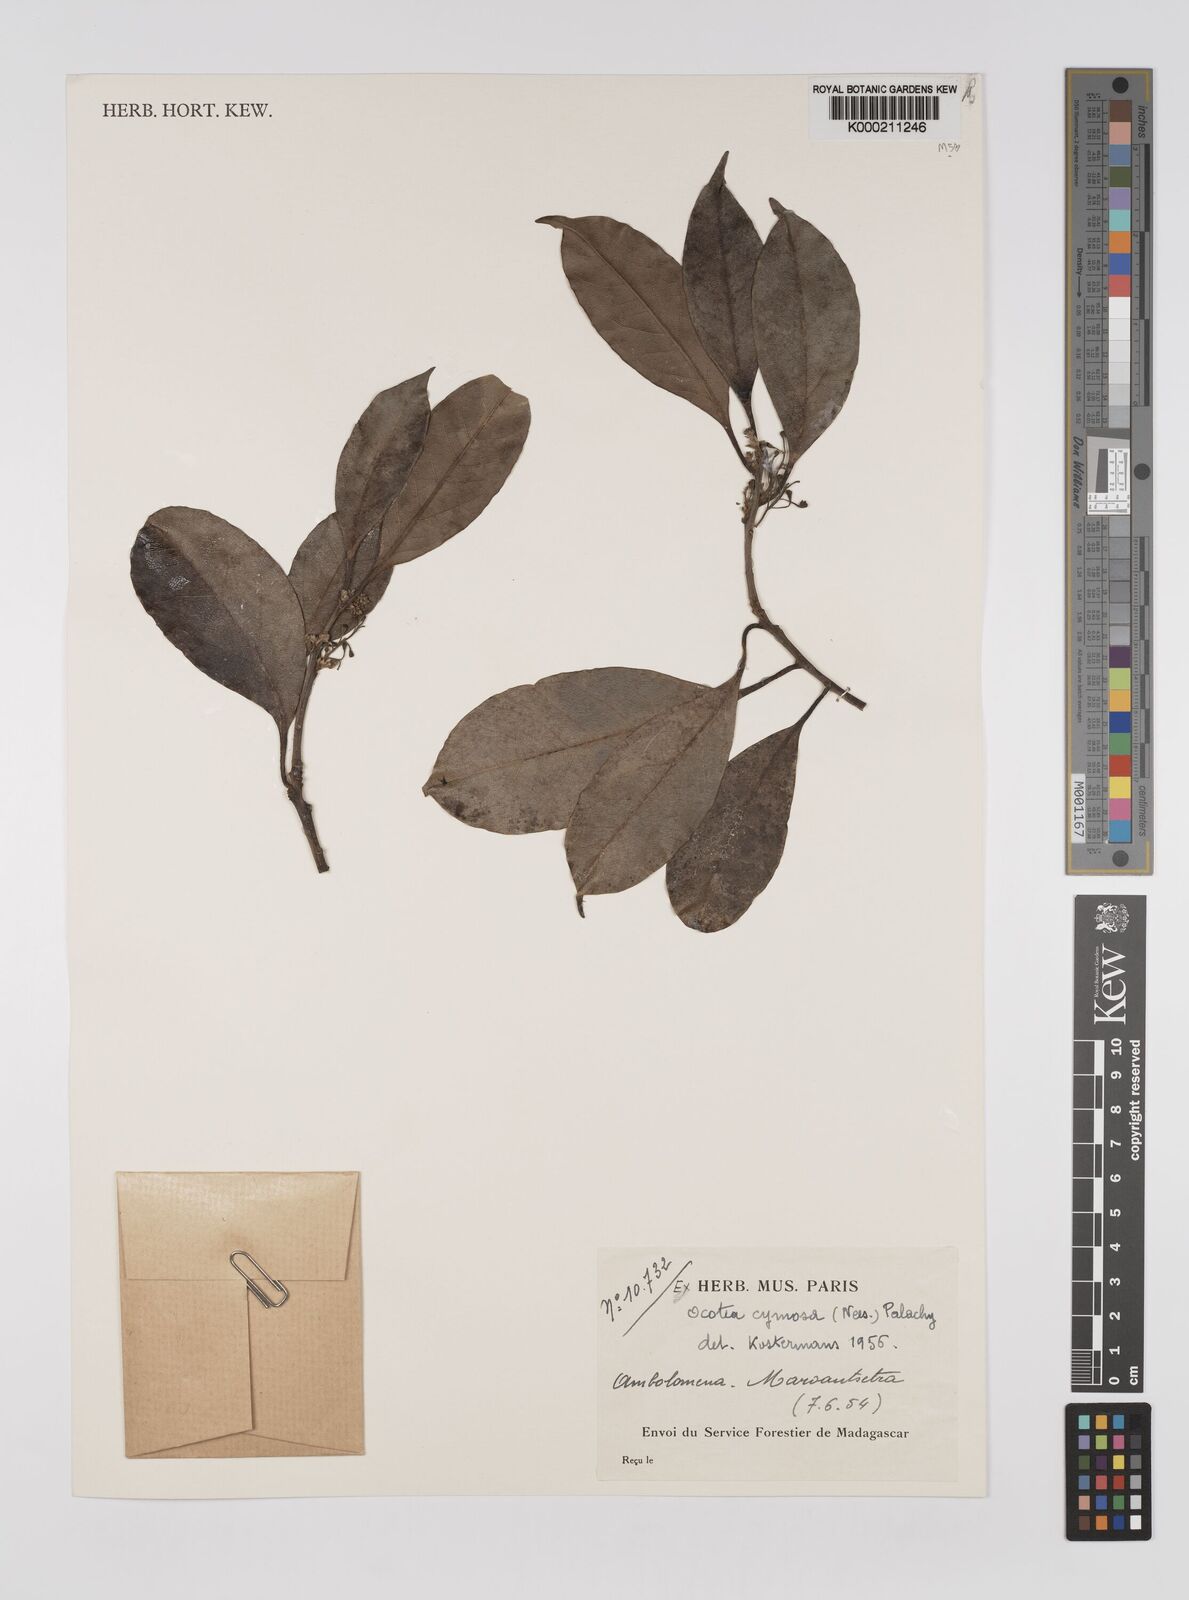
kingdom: Plantae
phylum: Tracheophyta
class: Magnoliopsida
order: Laurales
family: Lauraceae
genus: Mespilodaphne
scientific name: Mespilodaphne cymosa
